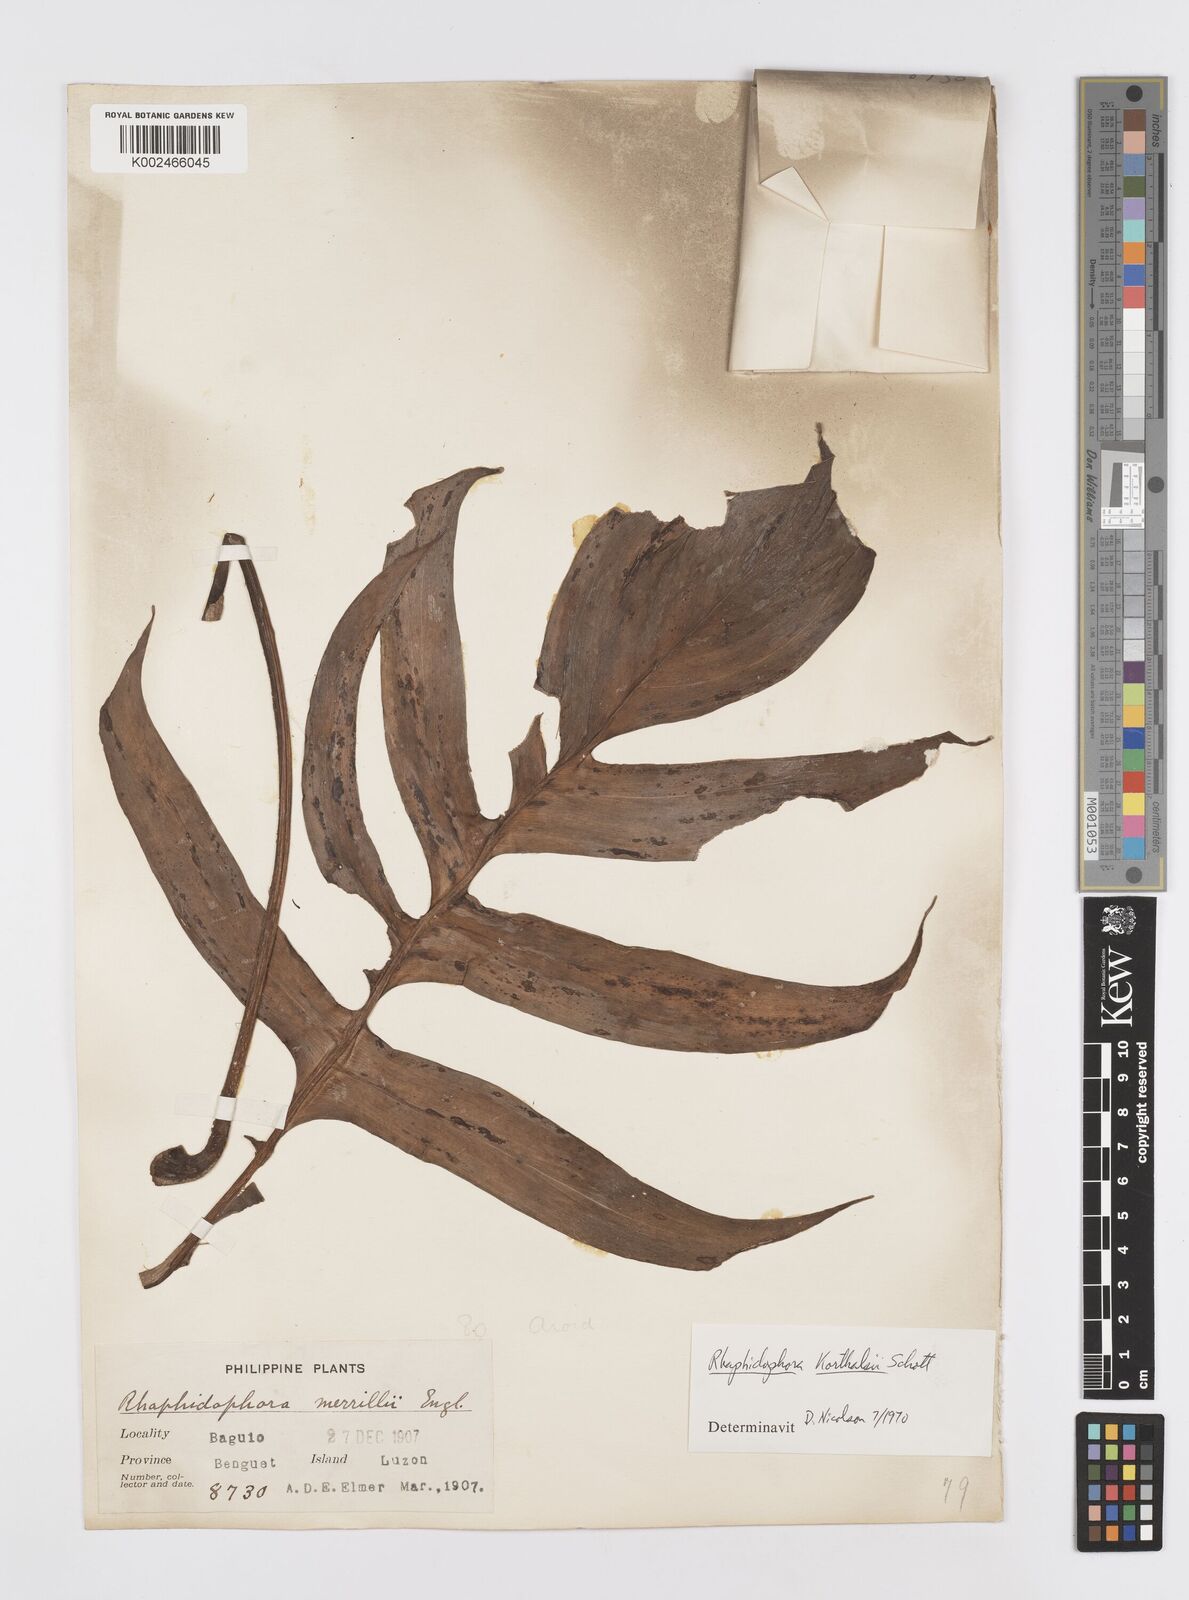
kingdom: Plantae
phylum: Tracheophyta
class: Liliopsida
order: Alismatales
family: Araceae
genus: Rhaphidophora
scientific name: Rhaphidophora korthalsii
